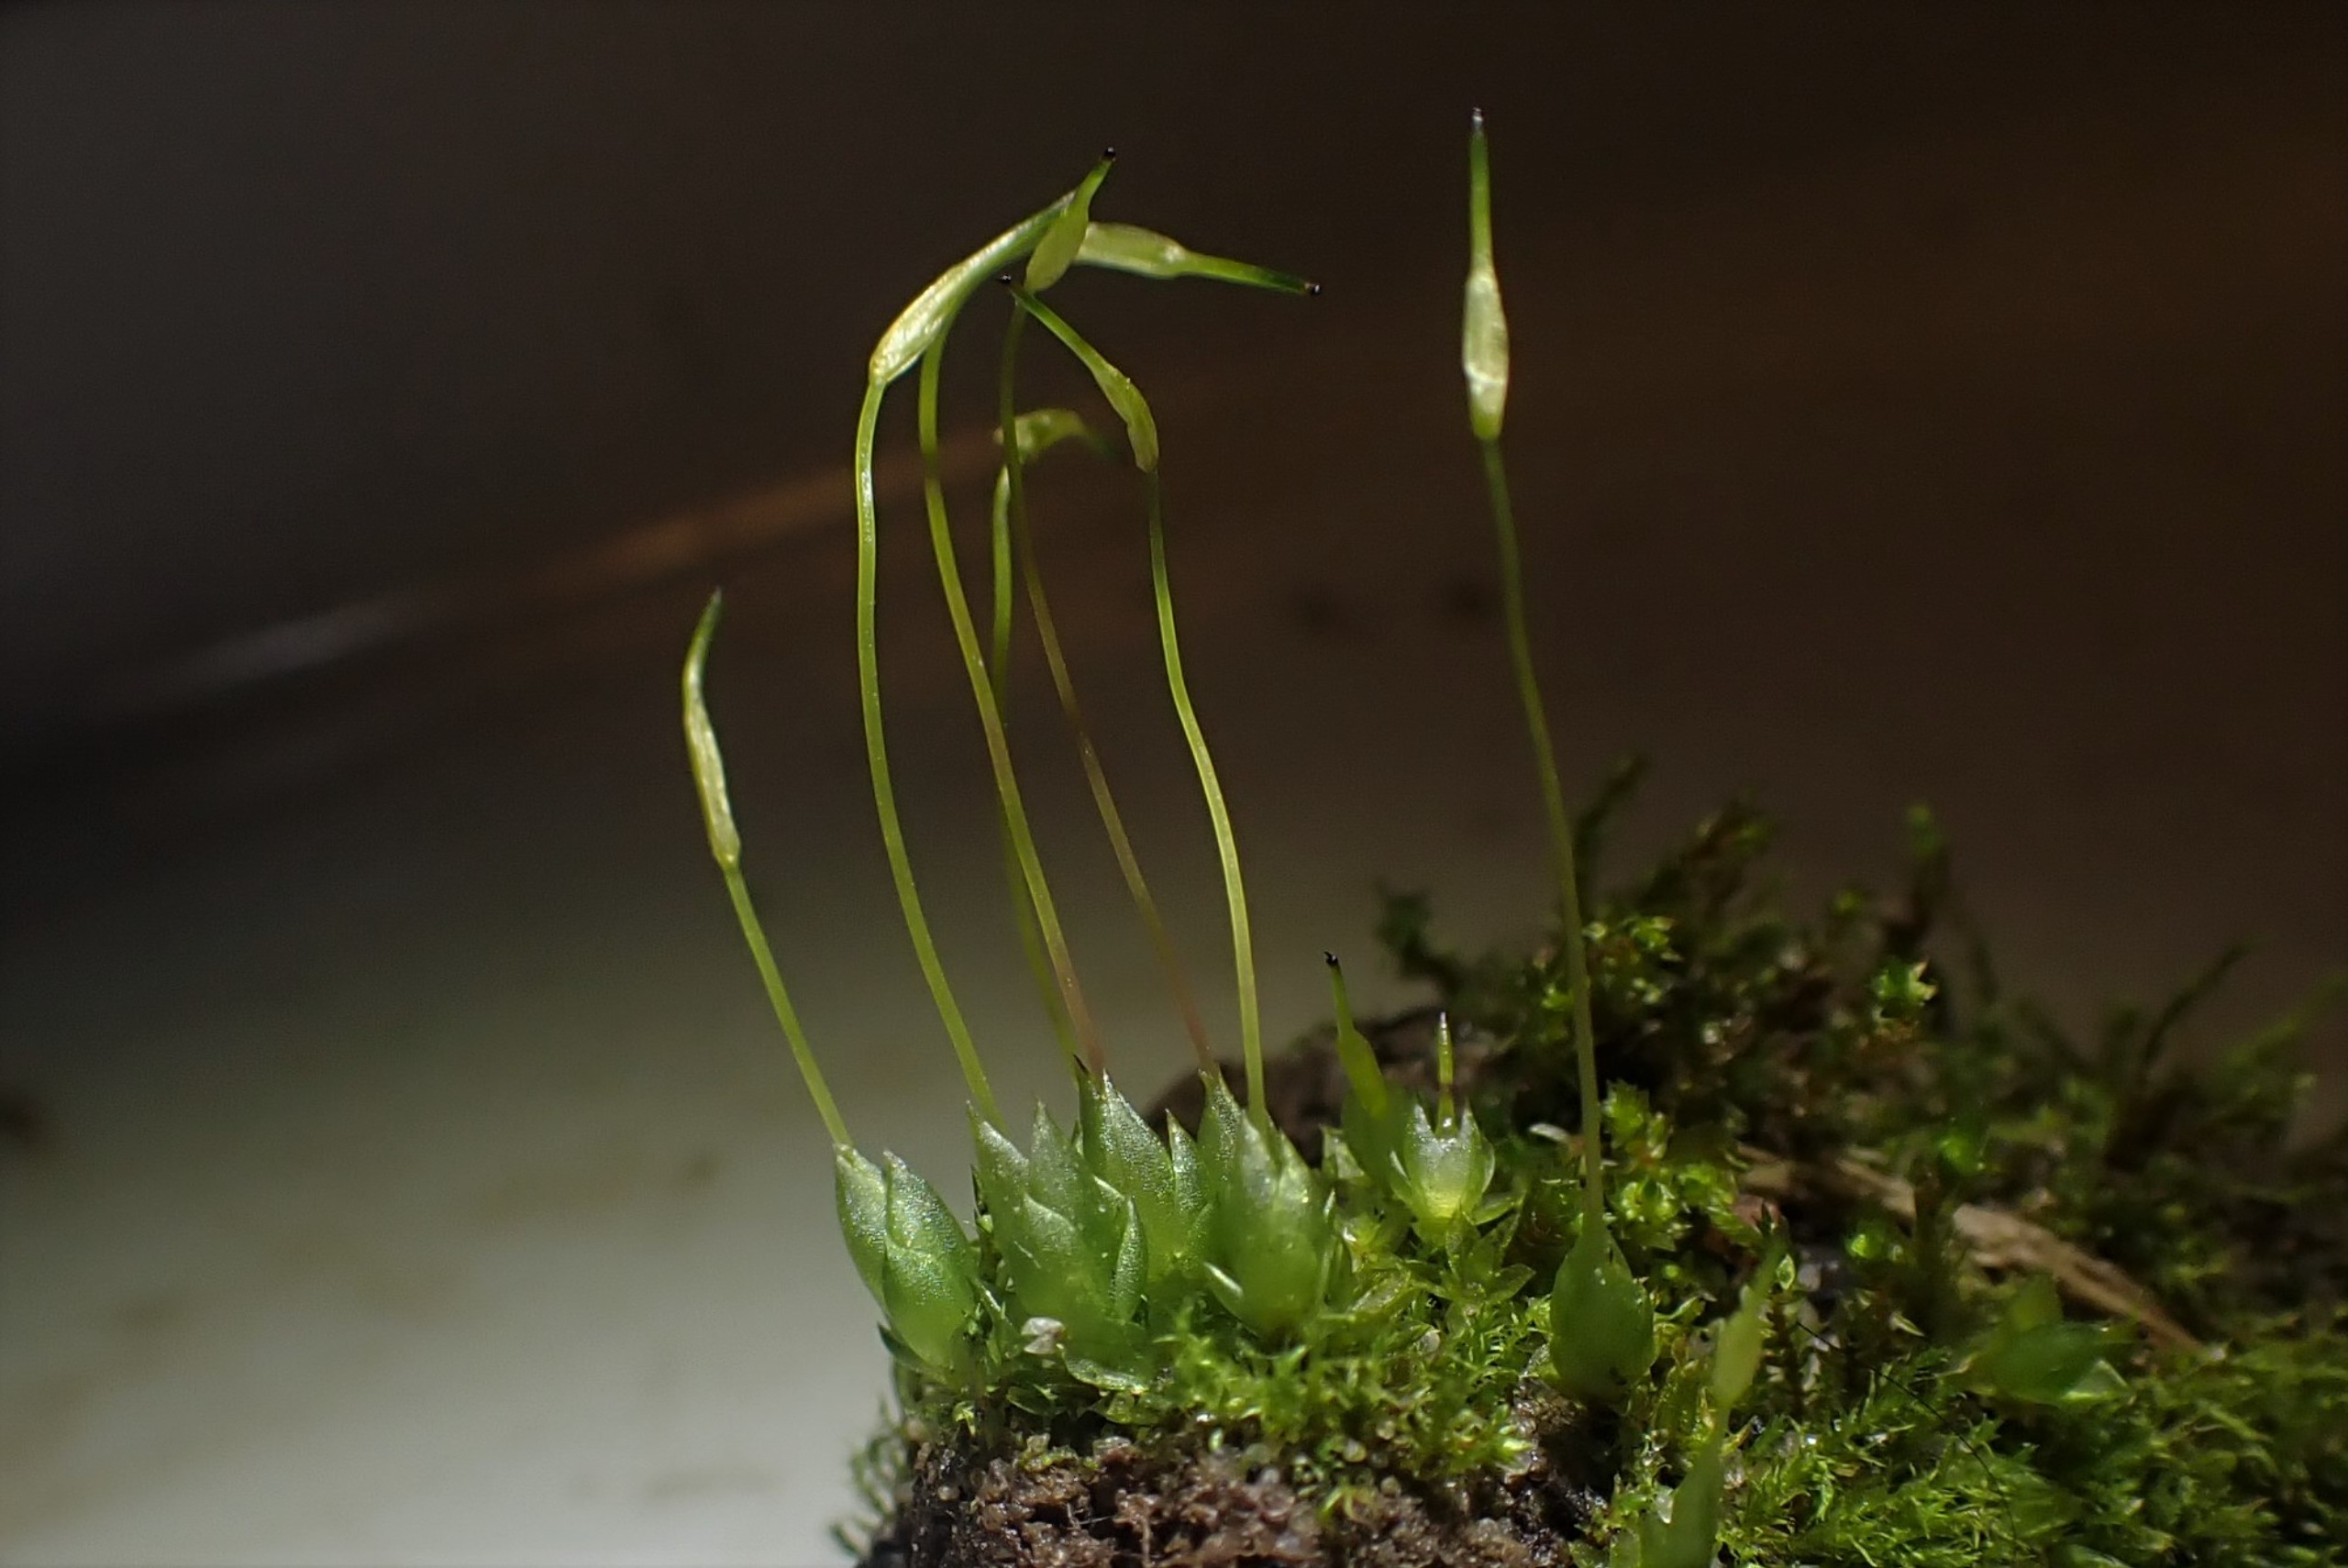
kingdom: Plantae
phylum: Bryophyta
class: Bryopsida
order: Funariales
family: Funariaceae
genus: Funaria
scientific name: Funaria hygrometrica
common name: Almindelig snobørste
